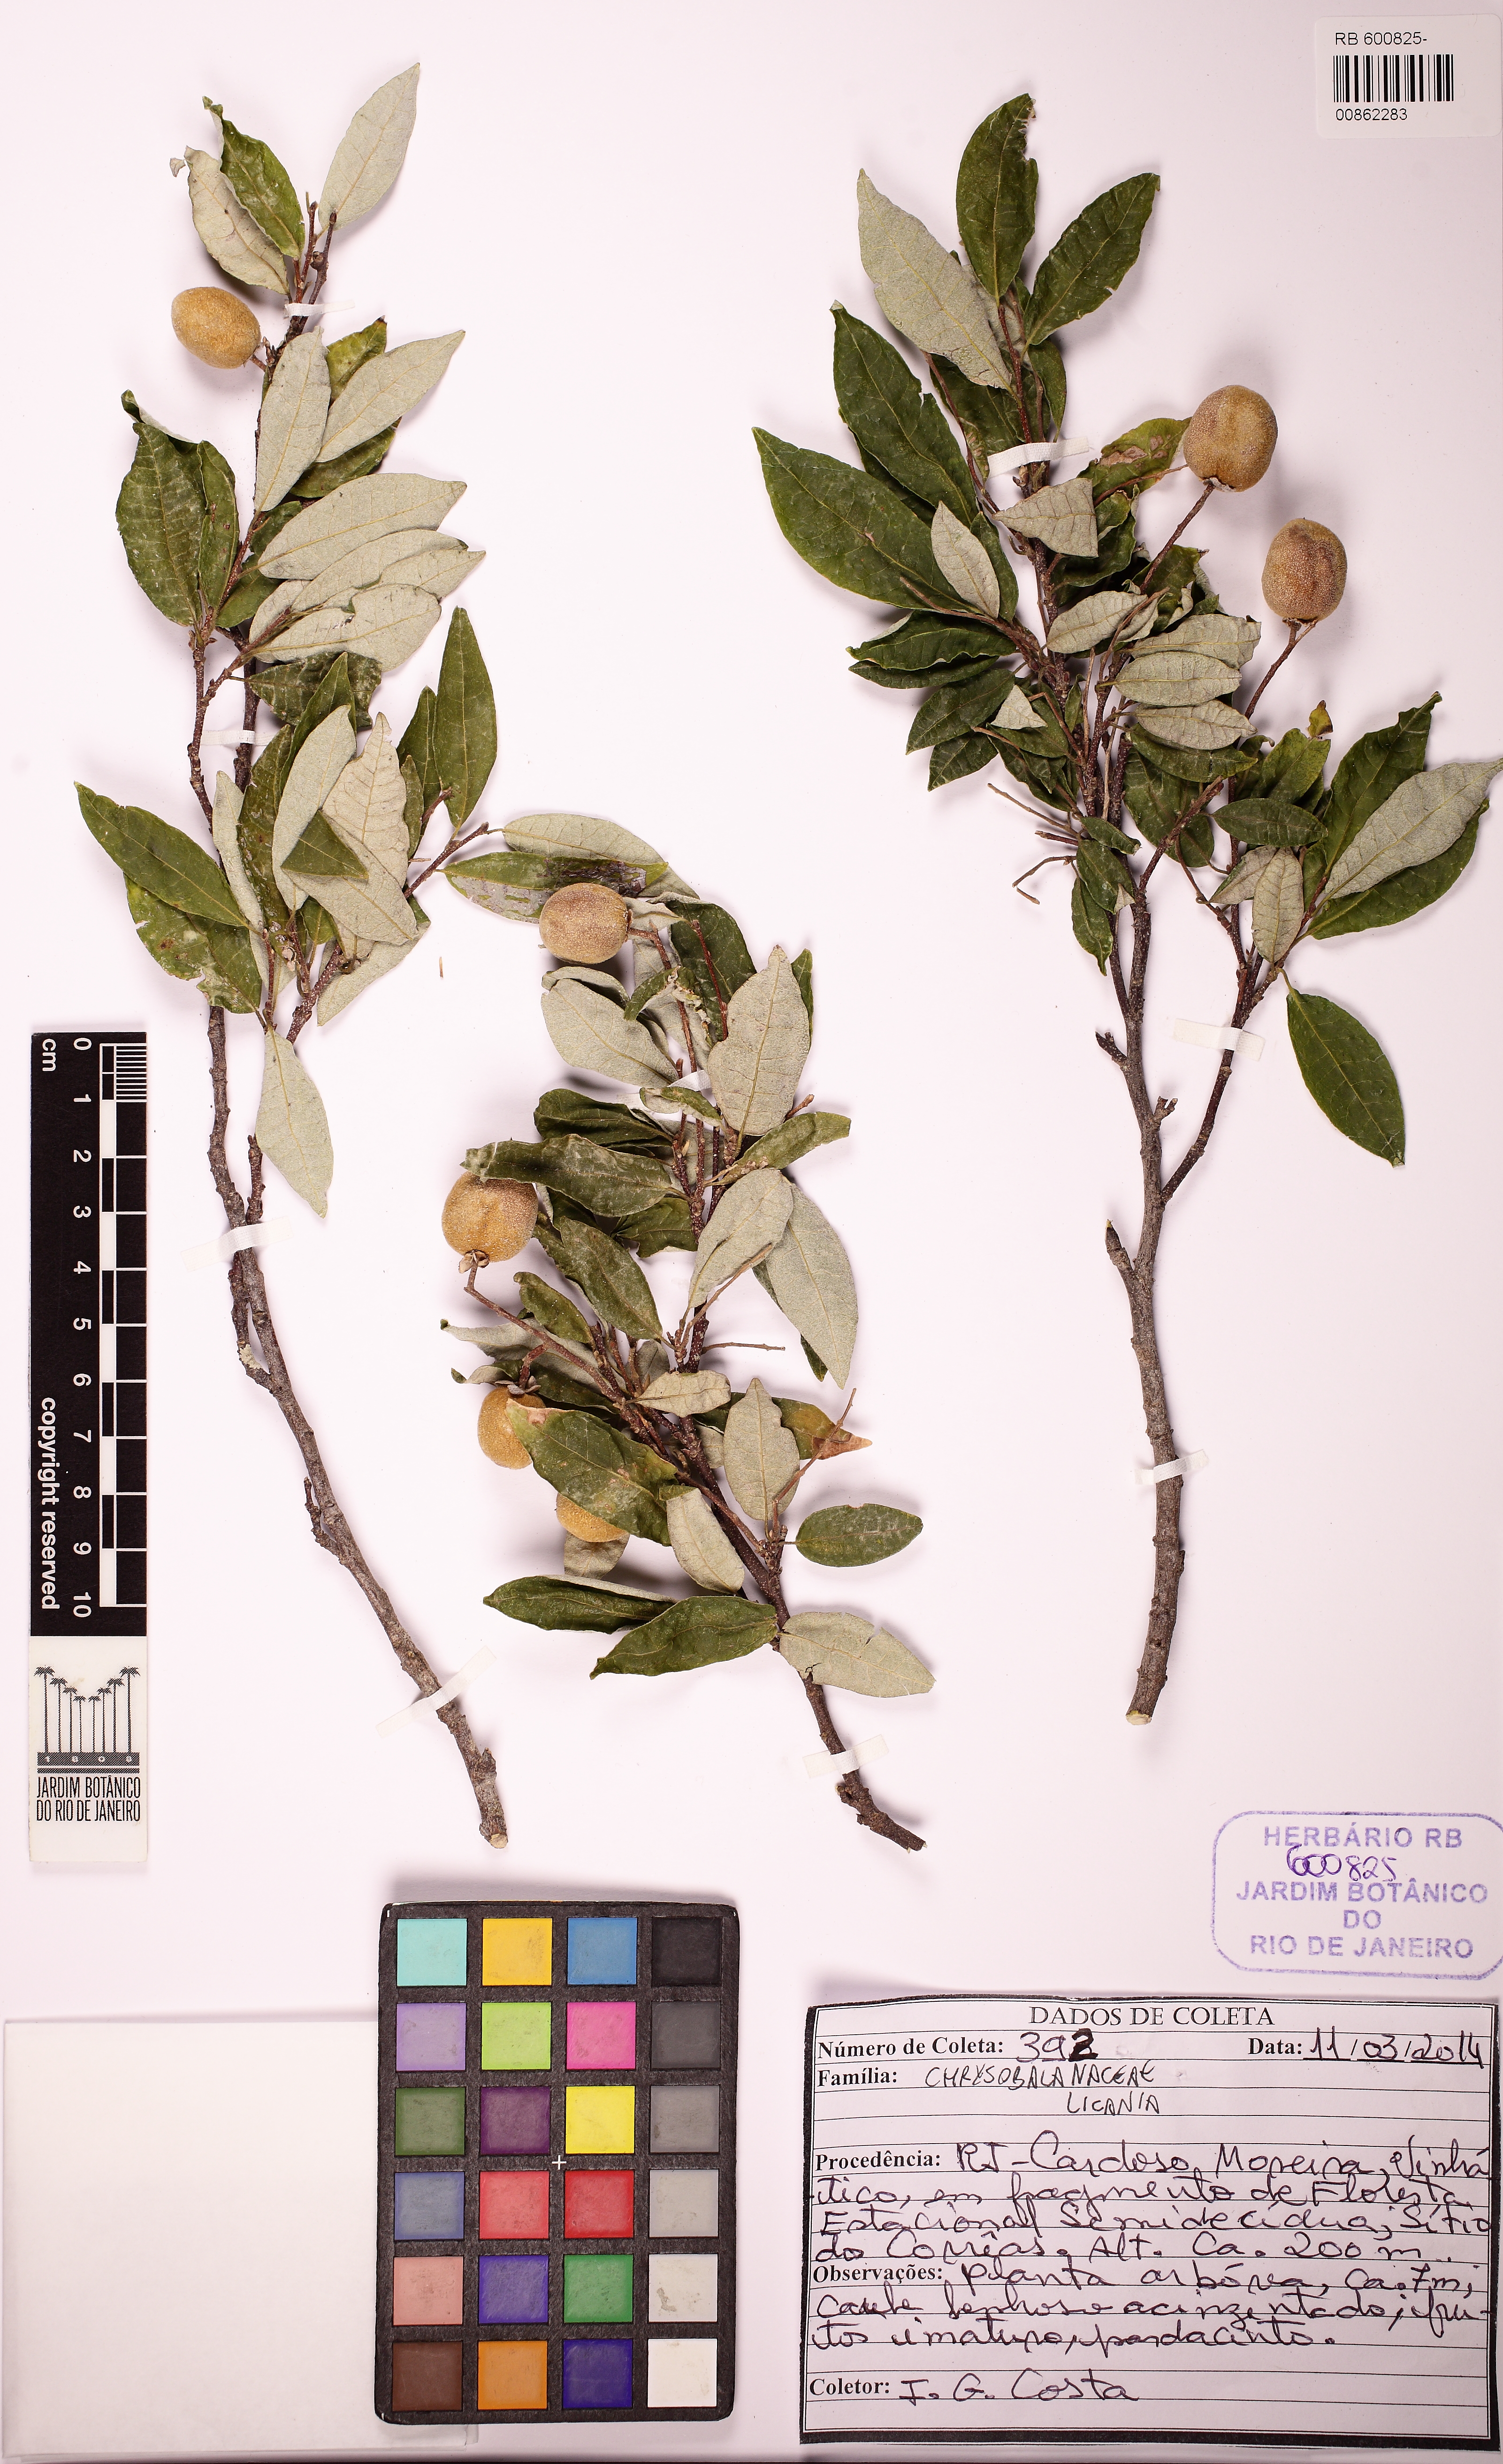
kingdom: Plantae
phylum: Tracheophyta
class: Magnoliopsida
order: Malpighiales
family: Trigoniaceae
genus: Trigoniodendron
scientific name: Trigoniodendron spiritusanctense
